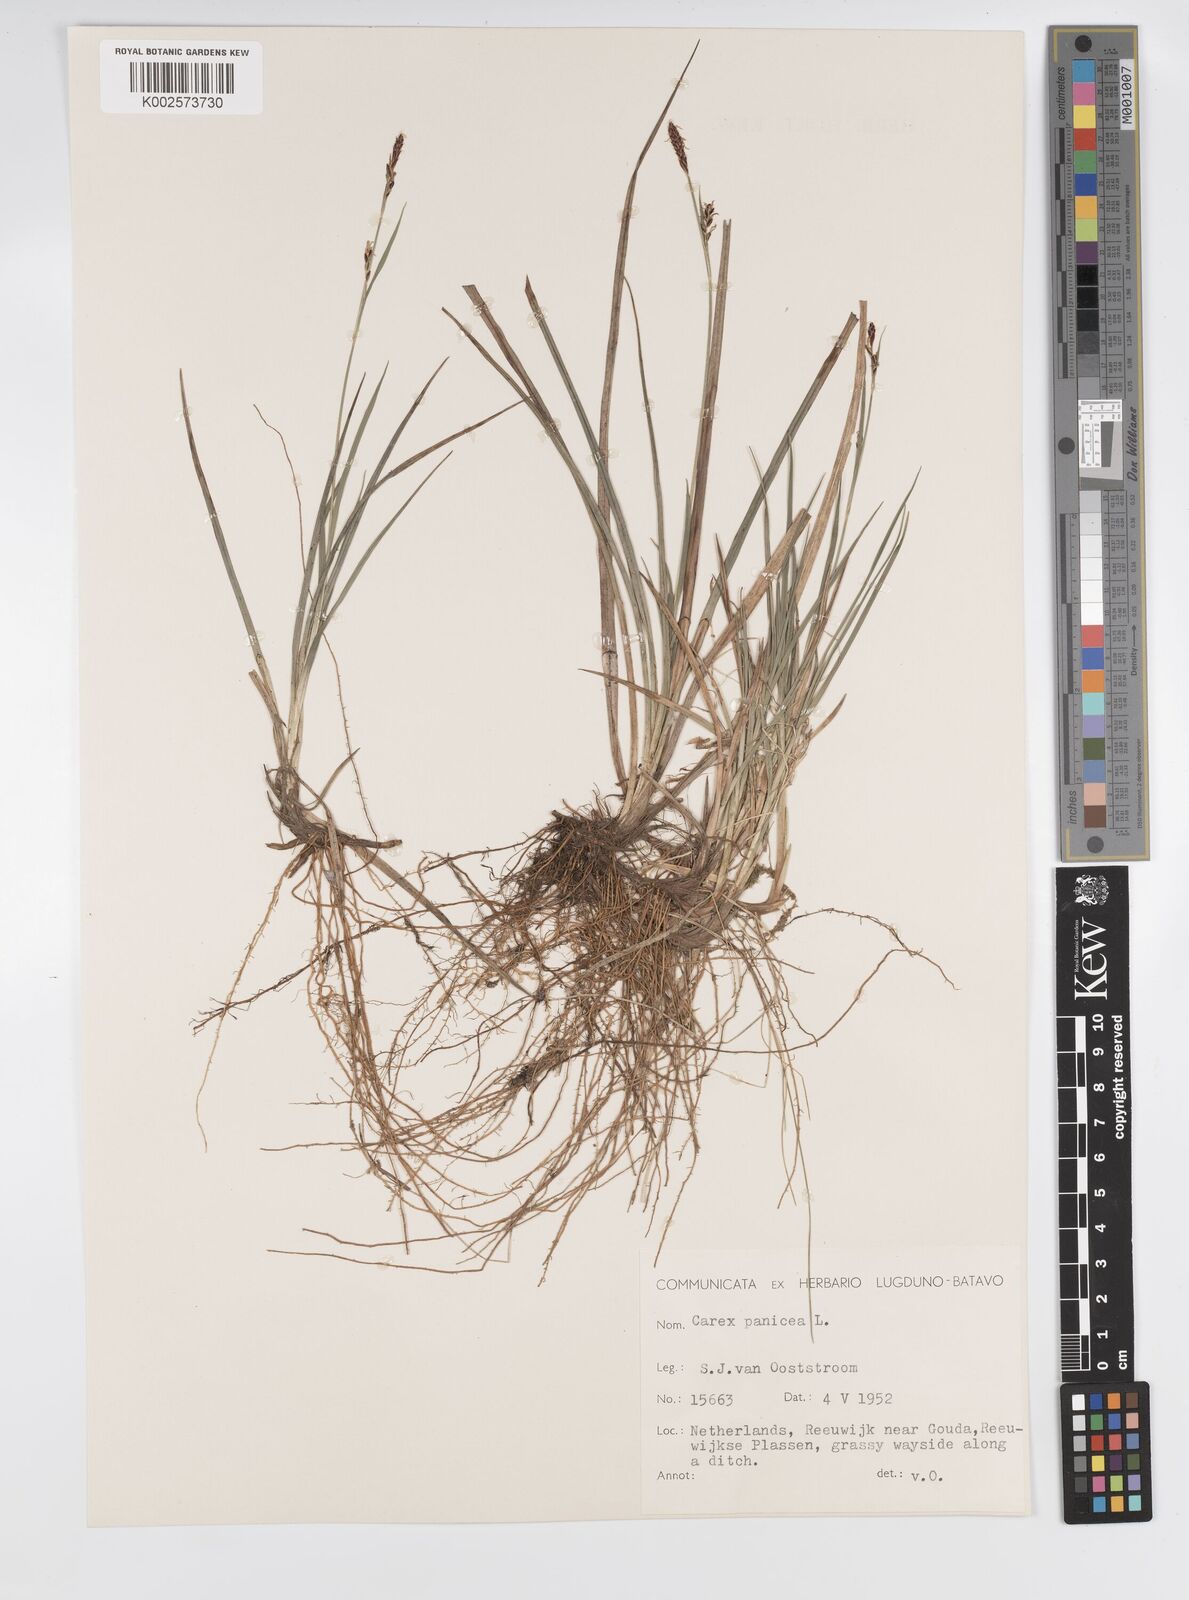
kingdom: Plantae
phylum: Tracheophyta
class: Liliopsida
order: Poales
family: Cyperaceae
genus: Carex
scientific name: Carex panicea
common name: Carnation sedge
